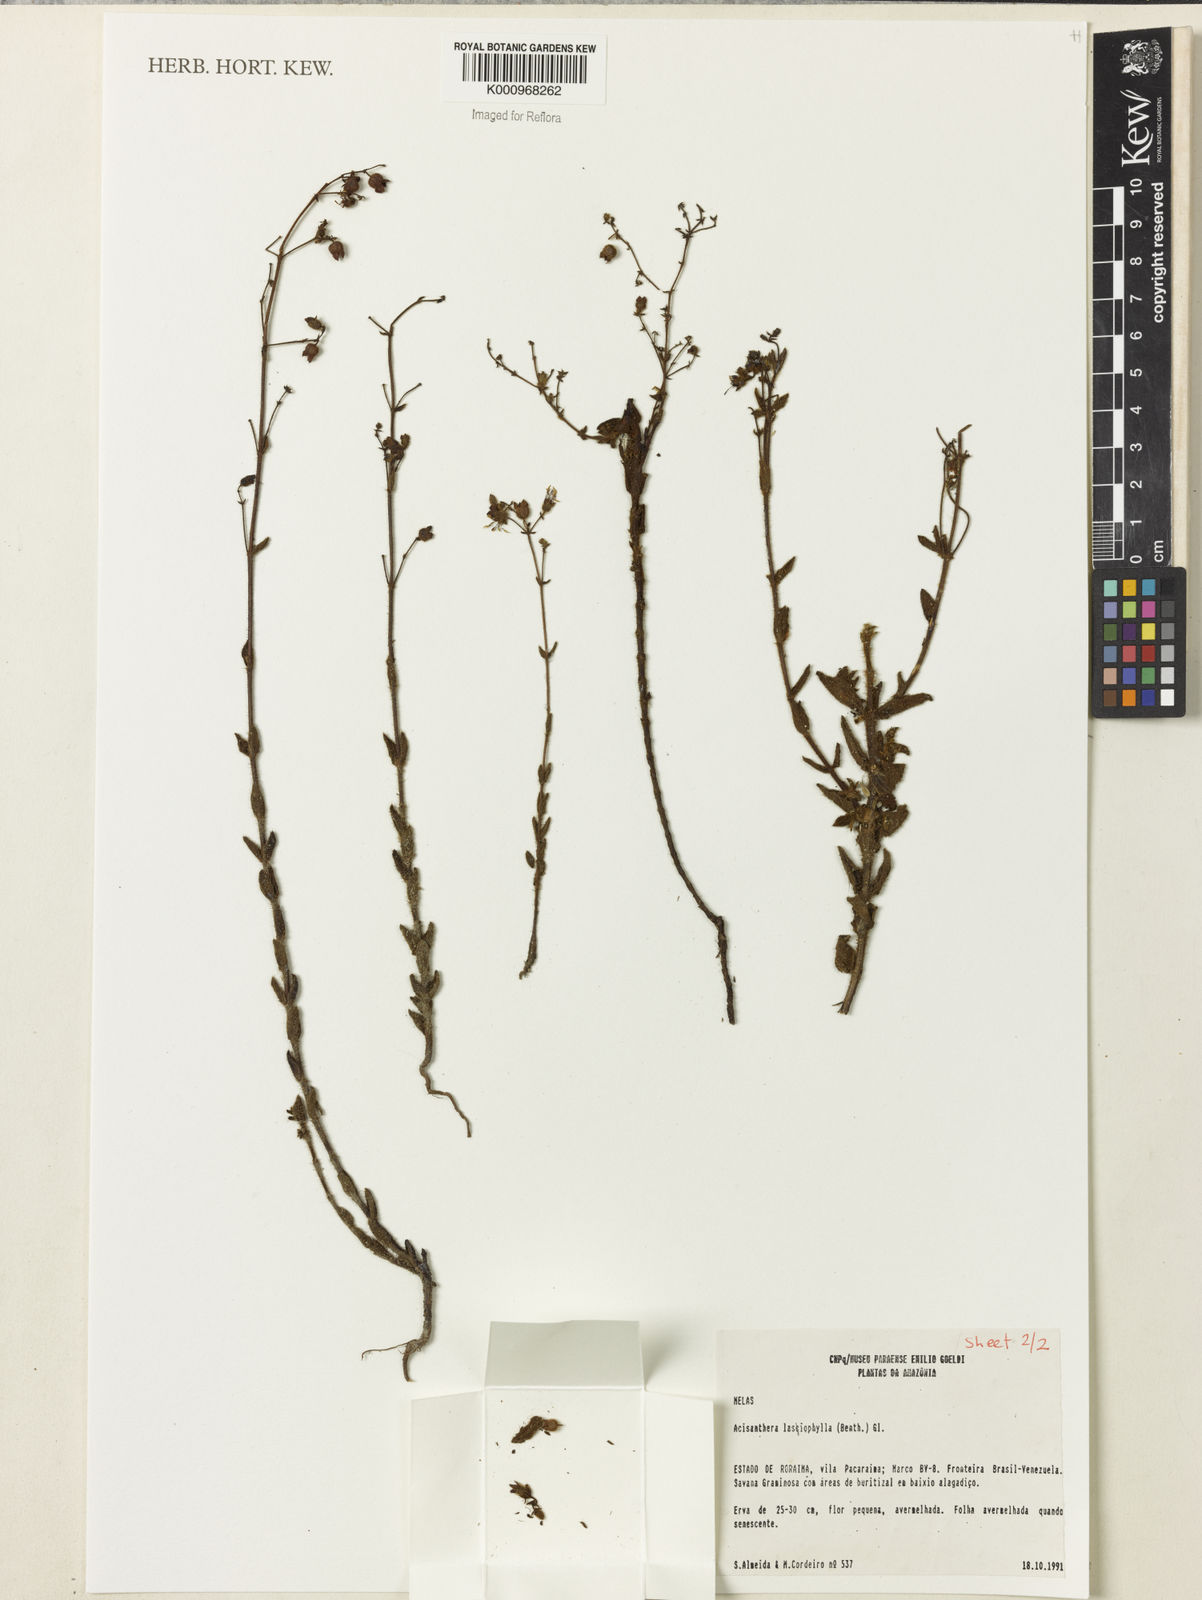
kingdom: Plantae
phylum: Tracheophyta
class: Magnoliopsida
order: Myrtales
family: Melastomataceae
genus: Macairea
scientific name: Macairea lasiophylla
